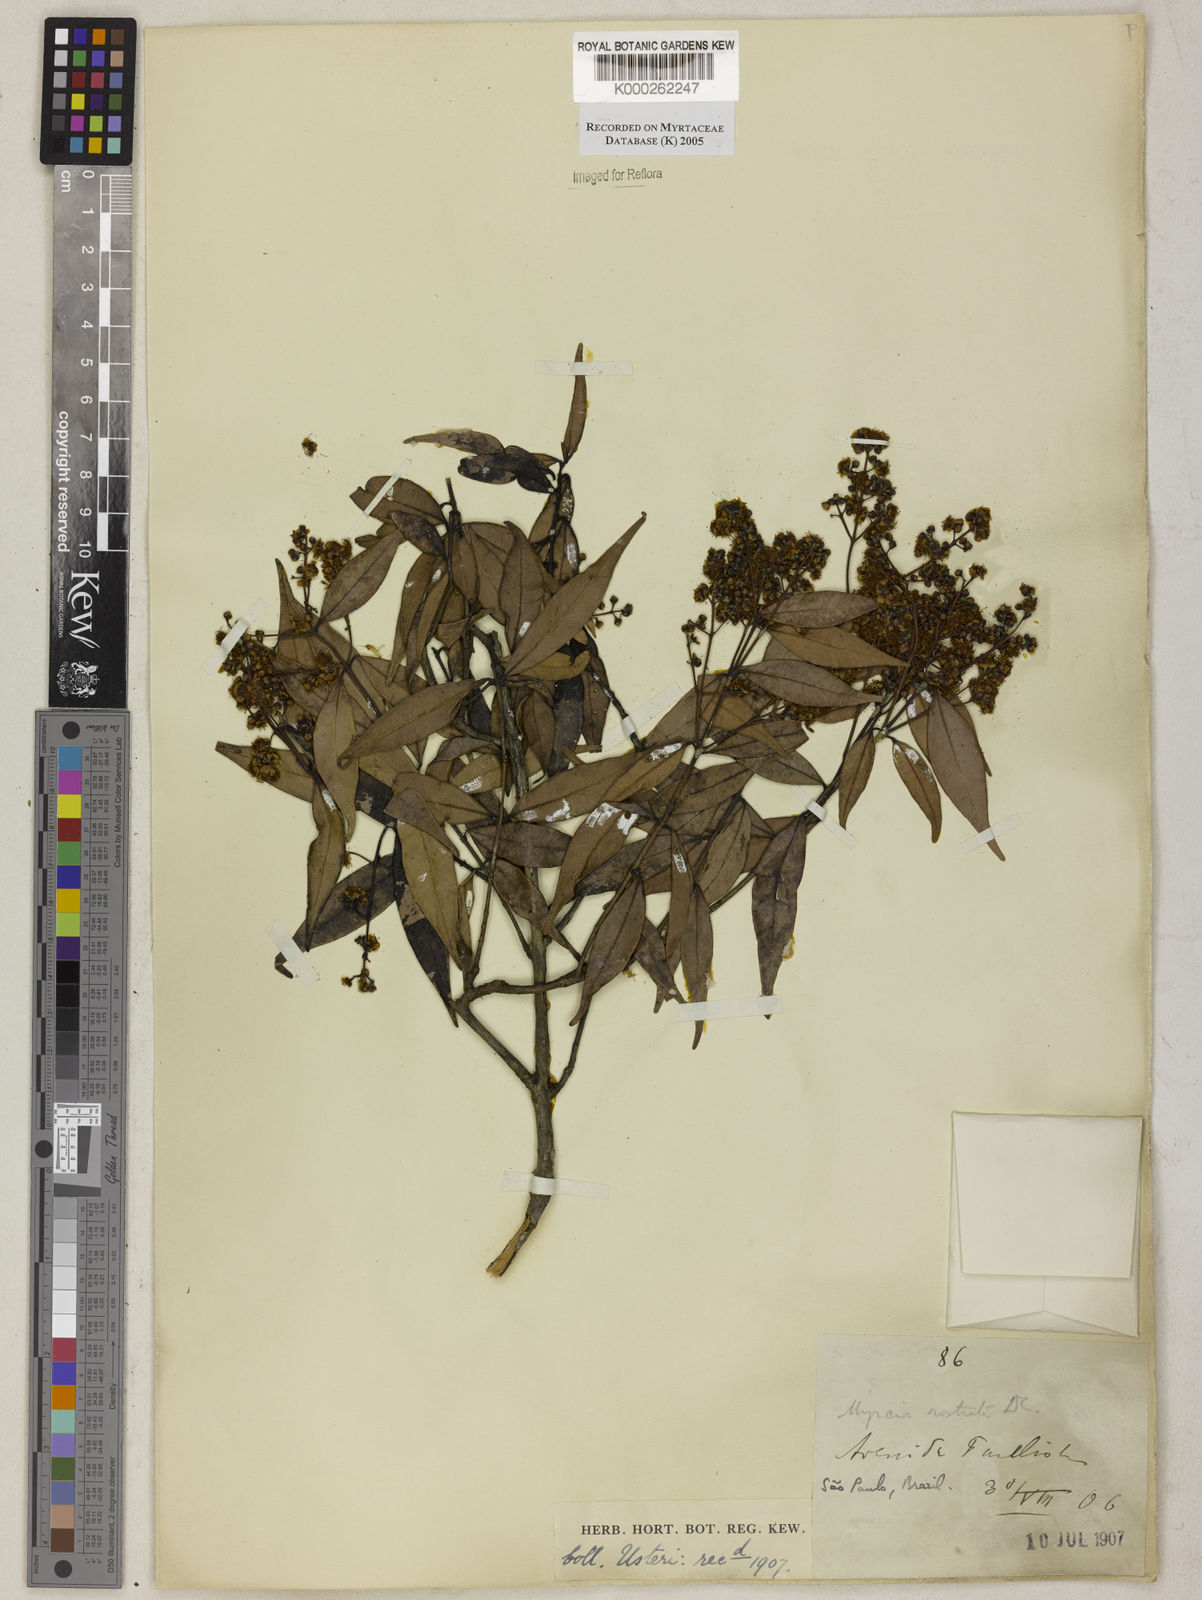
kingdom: Plantae
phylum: Tracheophyta
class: Magnoliopsida
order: Myrtales
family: Myrtaceae
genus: Myrcia
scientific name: Myrcia splendens
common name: Surinam cherry
